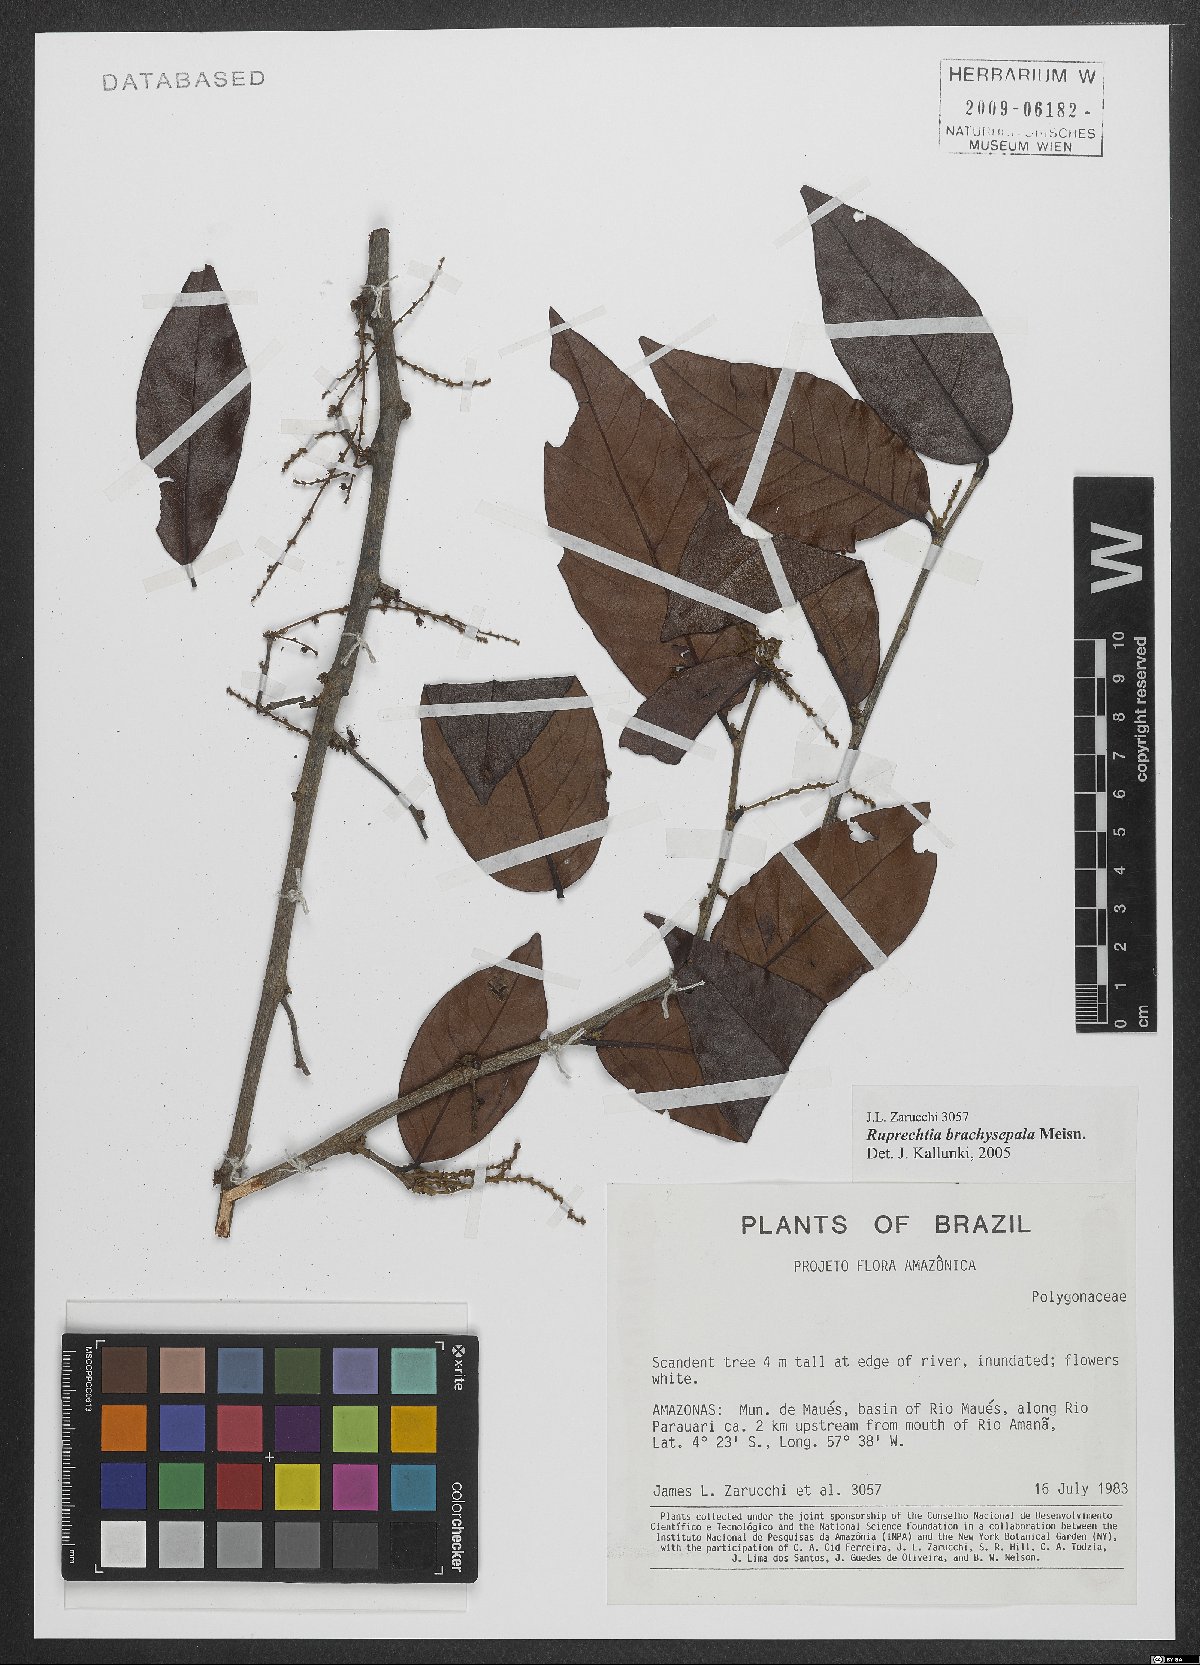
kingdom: Plantae
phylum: Tracheophyta
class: Magnoliopsida
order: Caryophyllales
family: Polygonaceae
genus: Ruprechtia
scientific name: Ruprechtia brachysepala
